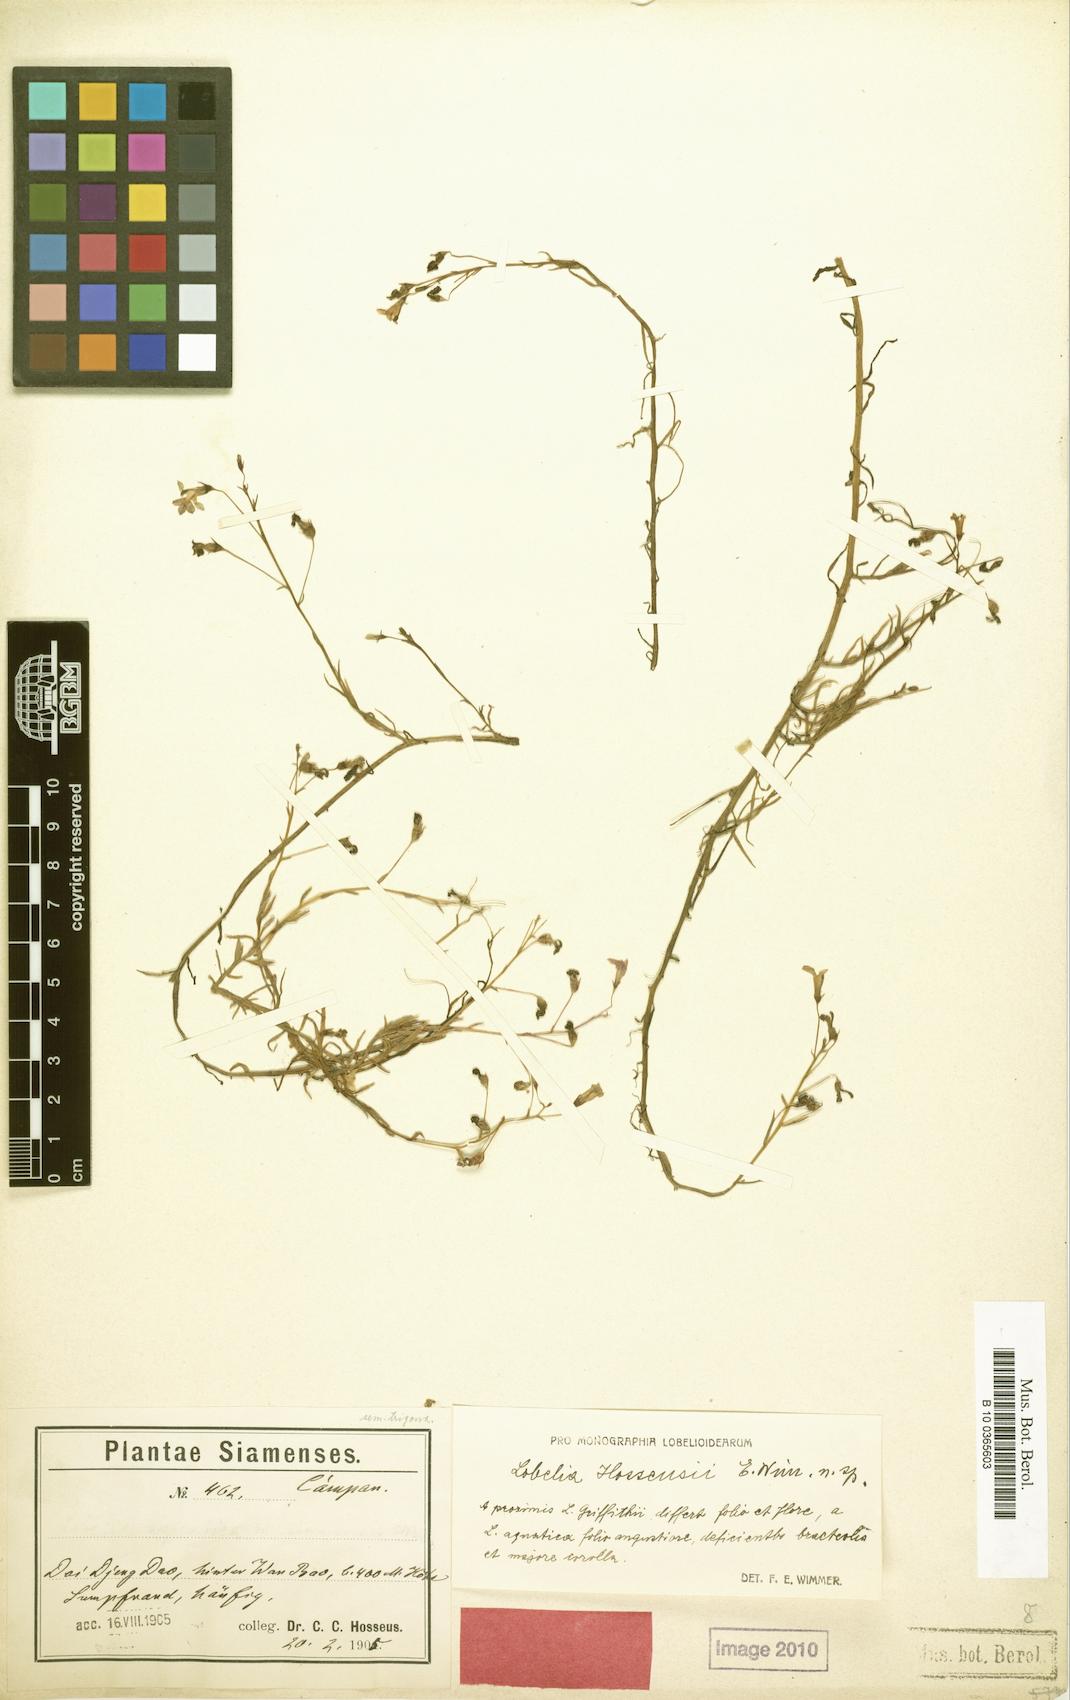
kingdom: Plantae
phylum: Tracheophyta
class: Magnoliopsida
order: Asterales
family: Campanulaceae
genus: Lobelia
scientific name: Lobelia dopatrioides
